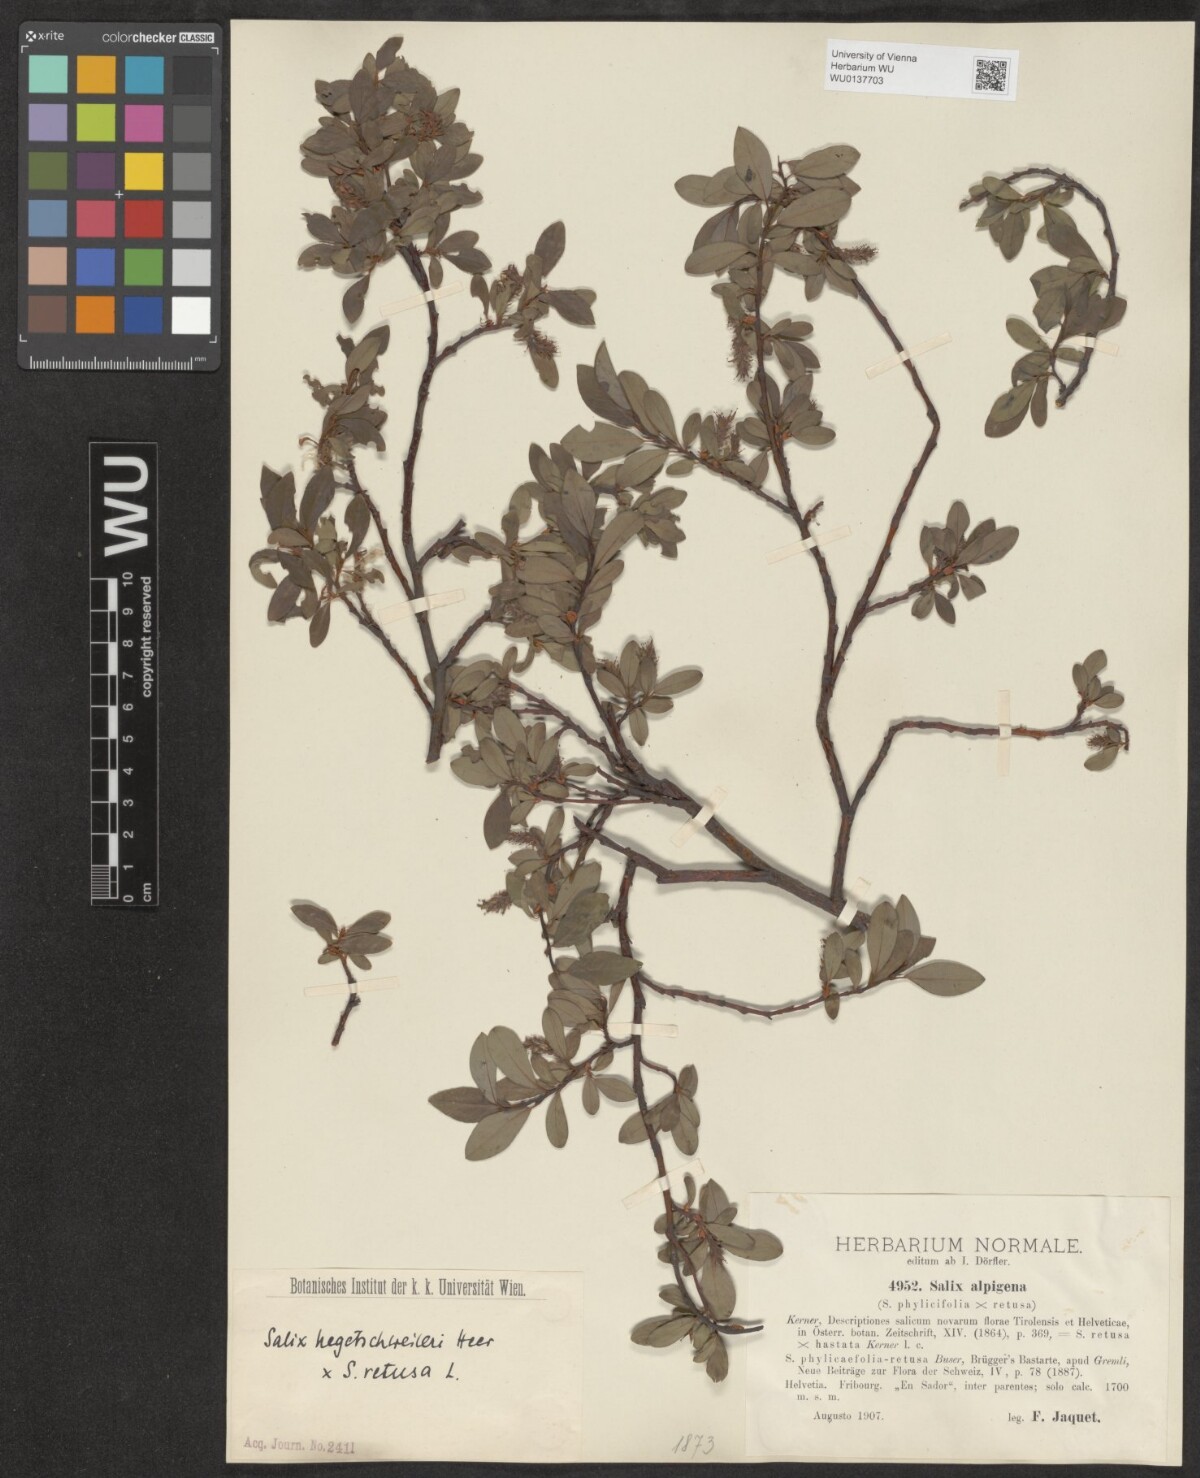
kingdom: Plantae
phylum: Tracheophyta
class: Magnoliopsida
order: Malpighiales
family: Salicaceae
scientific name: Salicaceae
